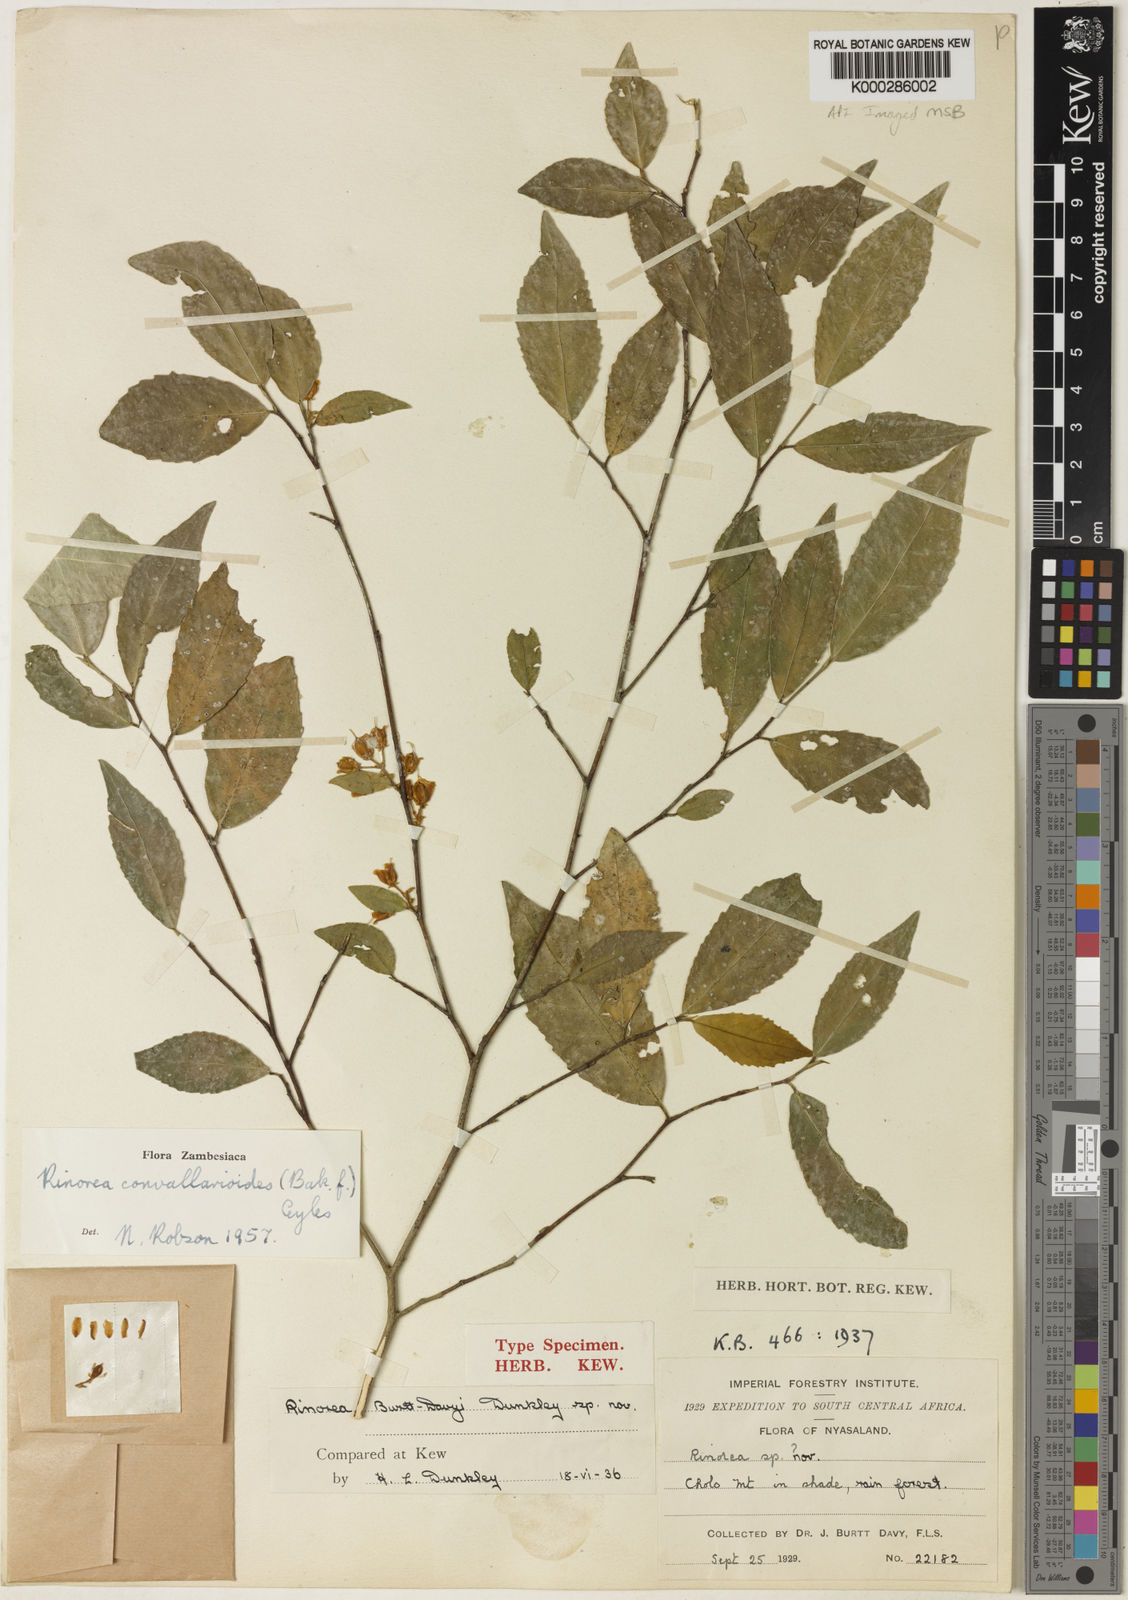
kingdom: Plantae
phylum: Tracheophyta
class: Magnoliopsida
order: Malpighiales
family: Violaceae
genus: Rinorea
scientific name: Rinorea convallarioides
